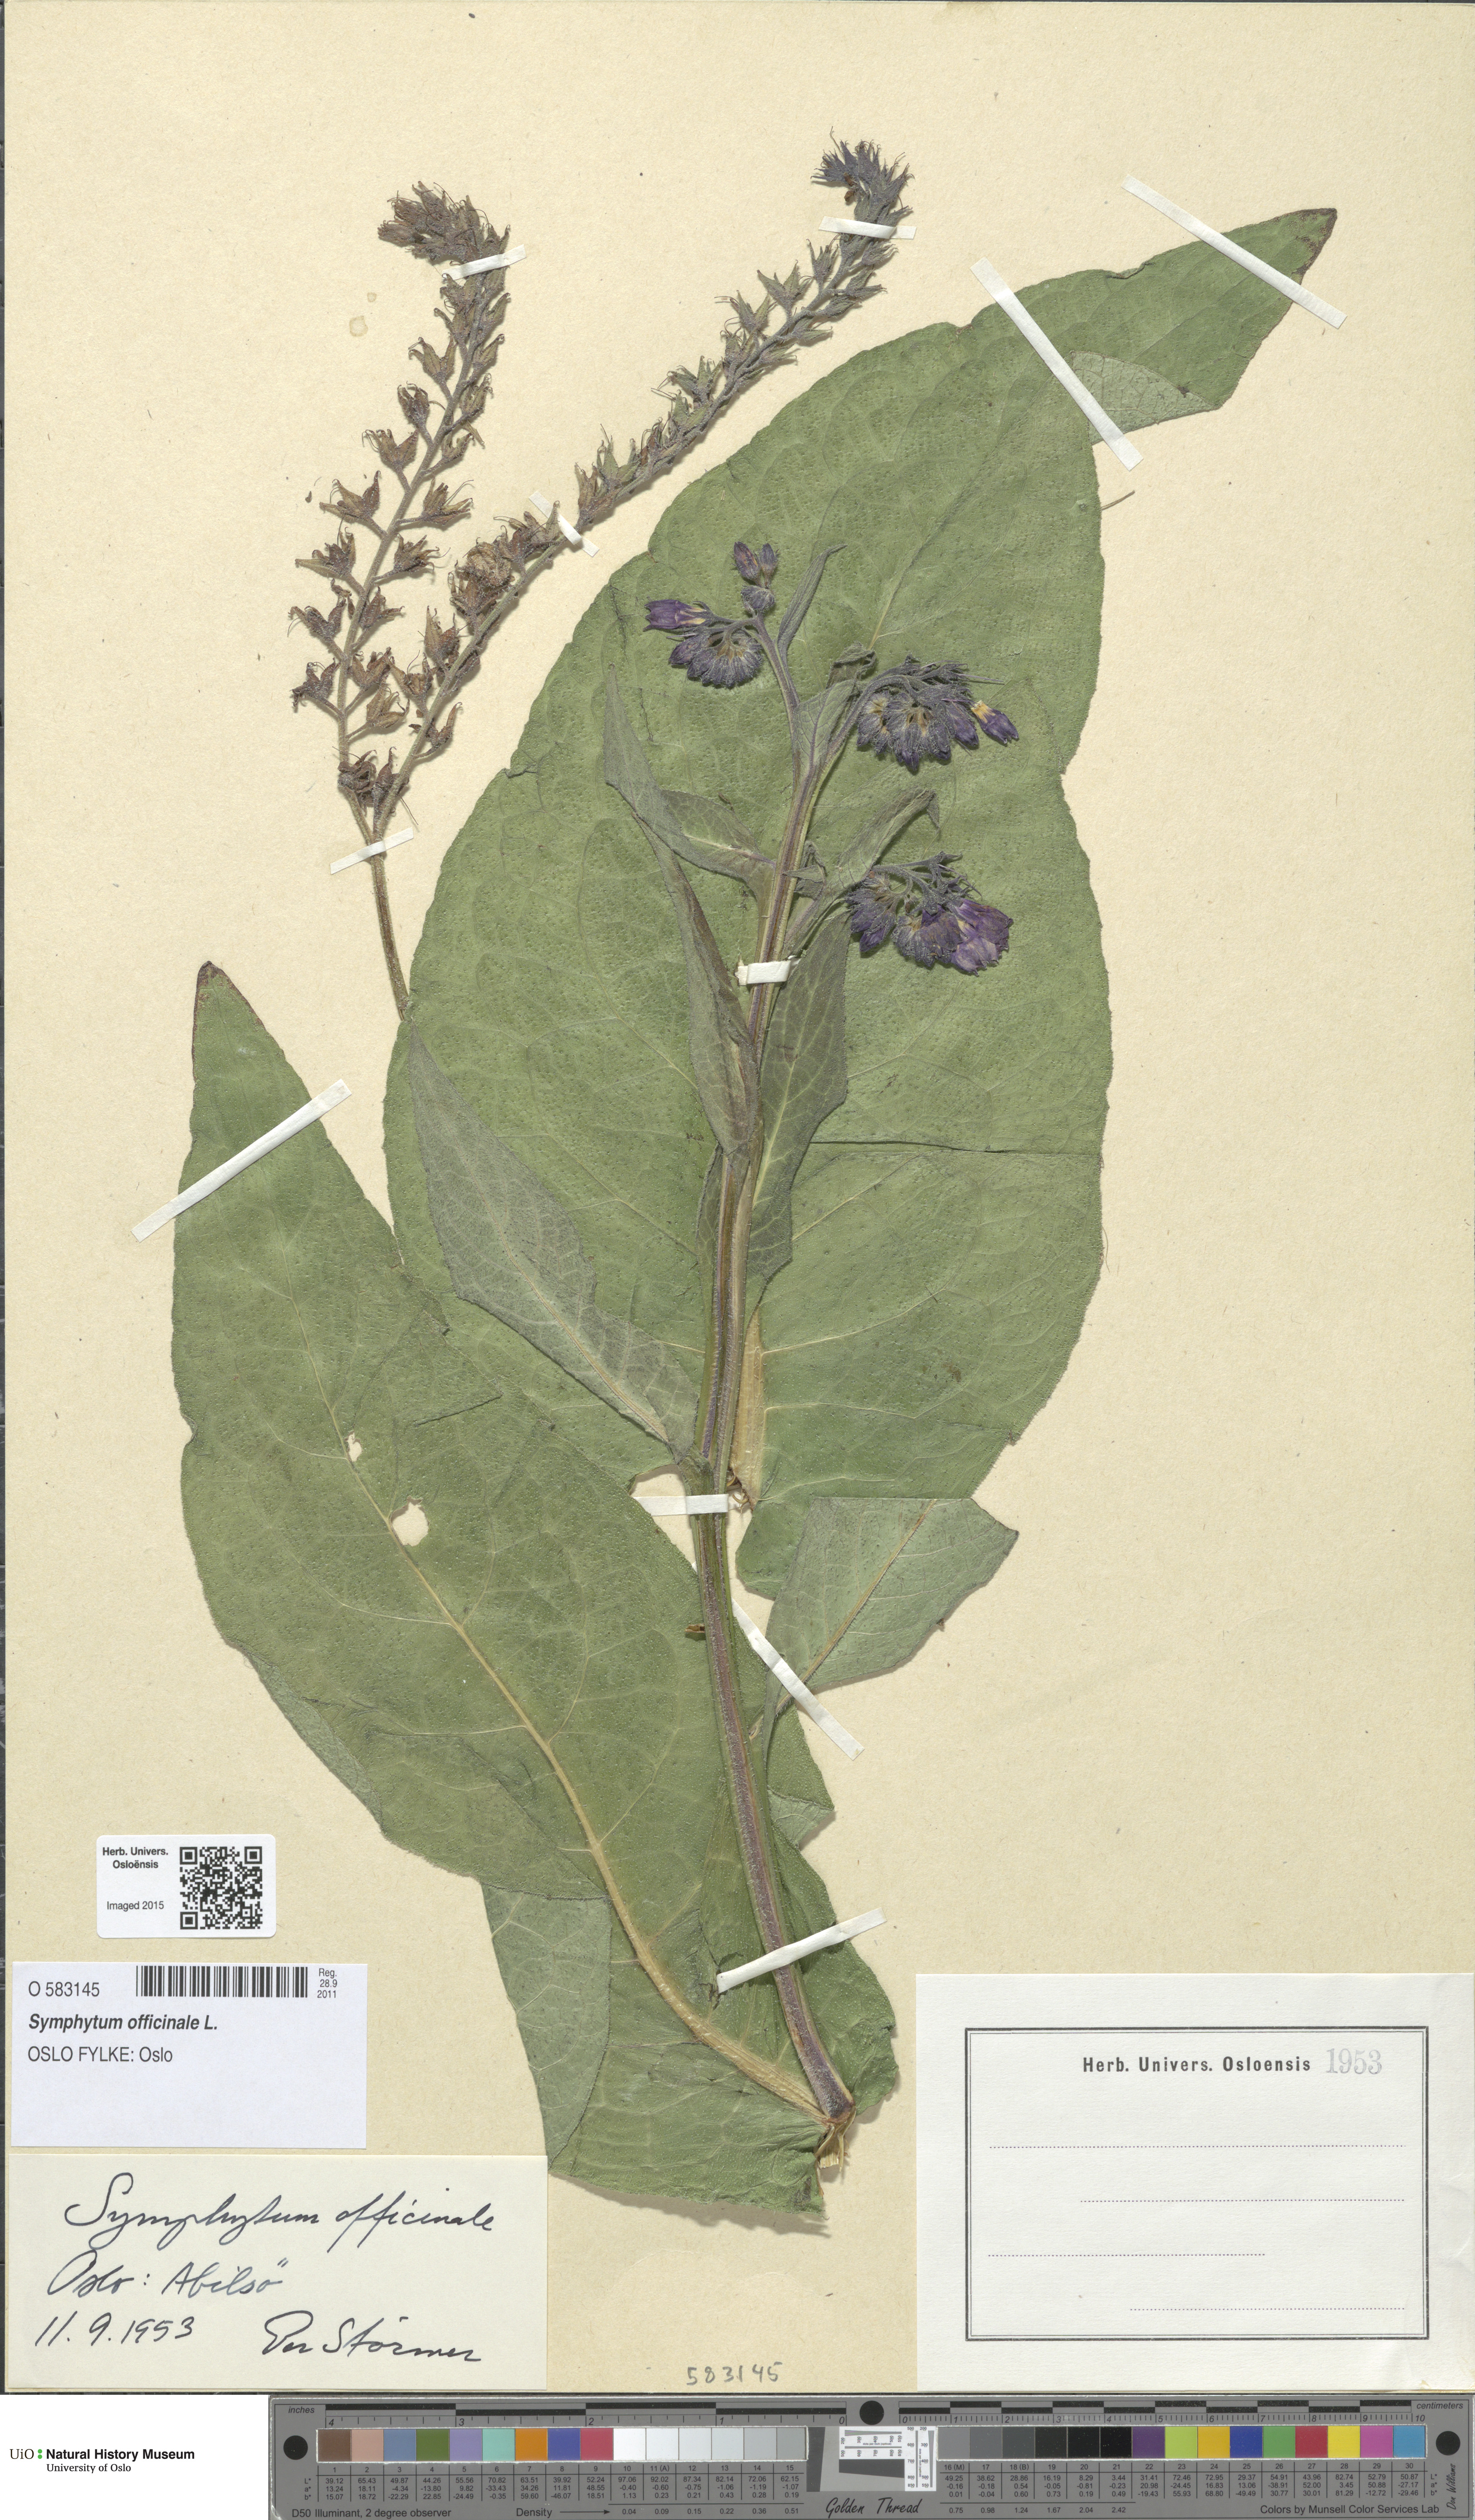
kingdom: Plantae
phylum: Tracheophyta
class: Magnoliopsida
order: Boraginales
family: Boraginaceae
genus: Symphytum
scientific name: Symphytum officinale
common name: Common comfrey
